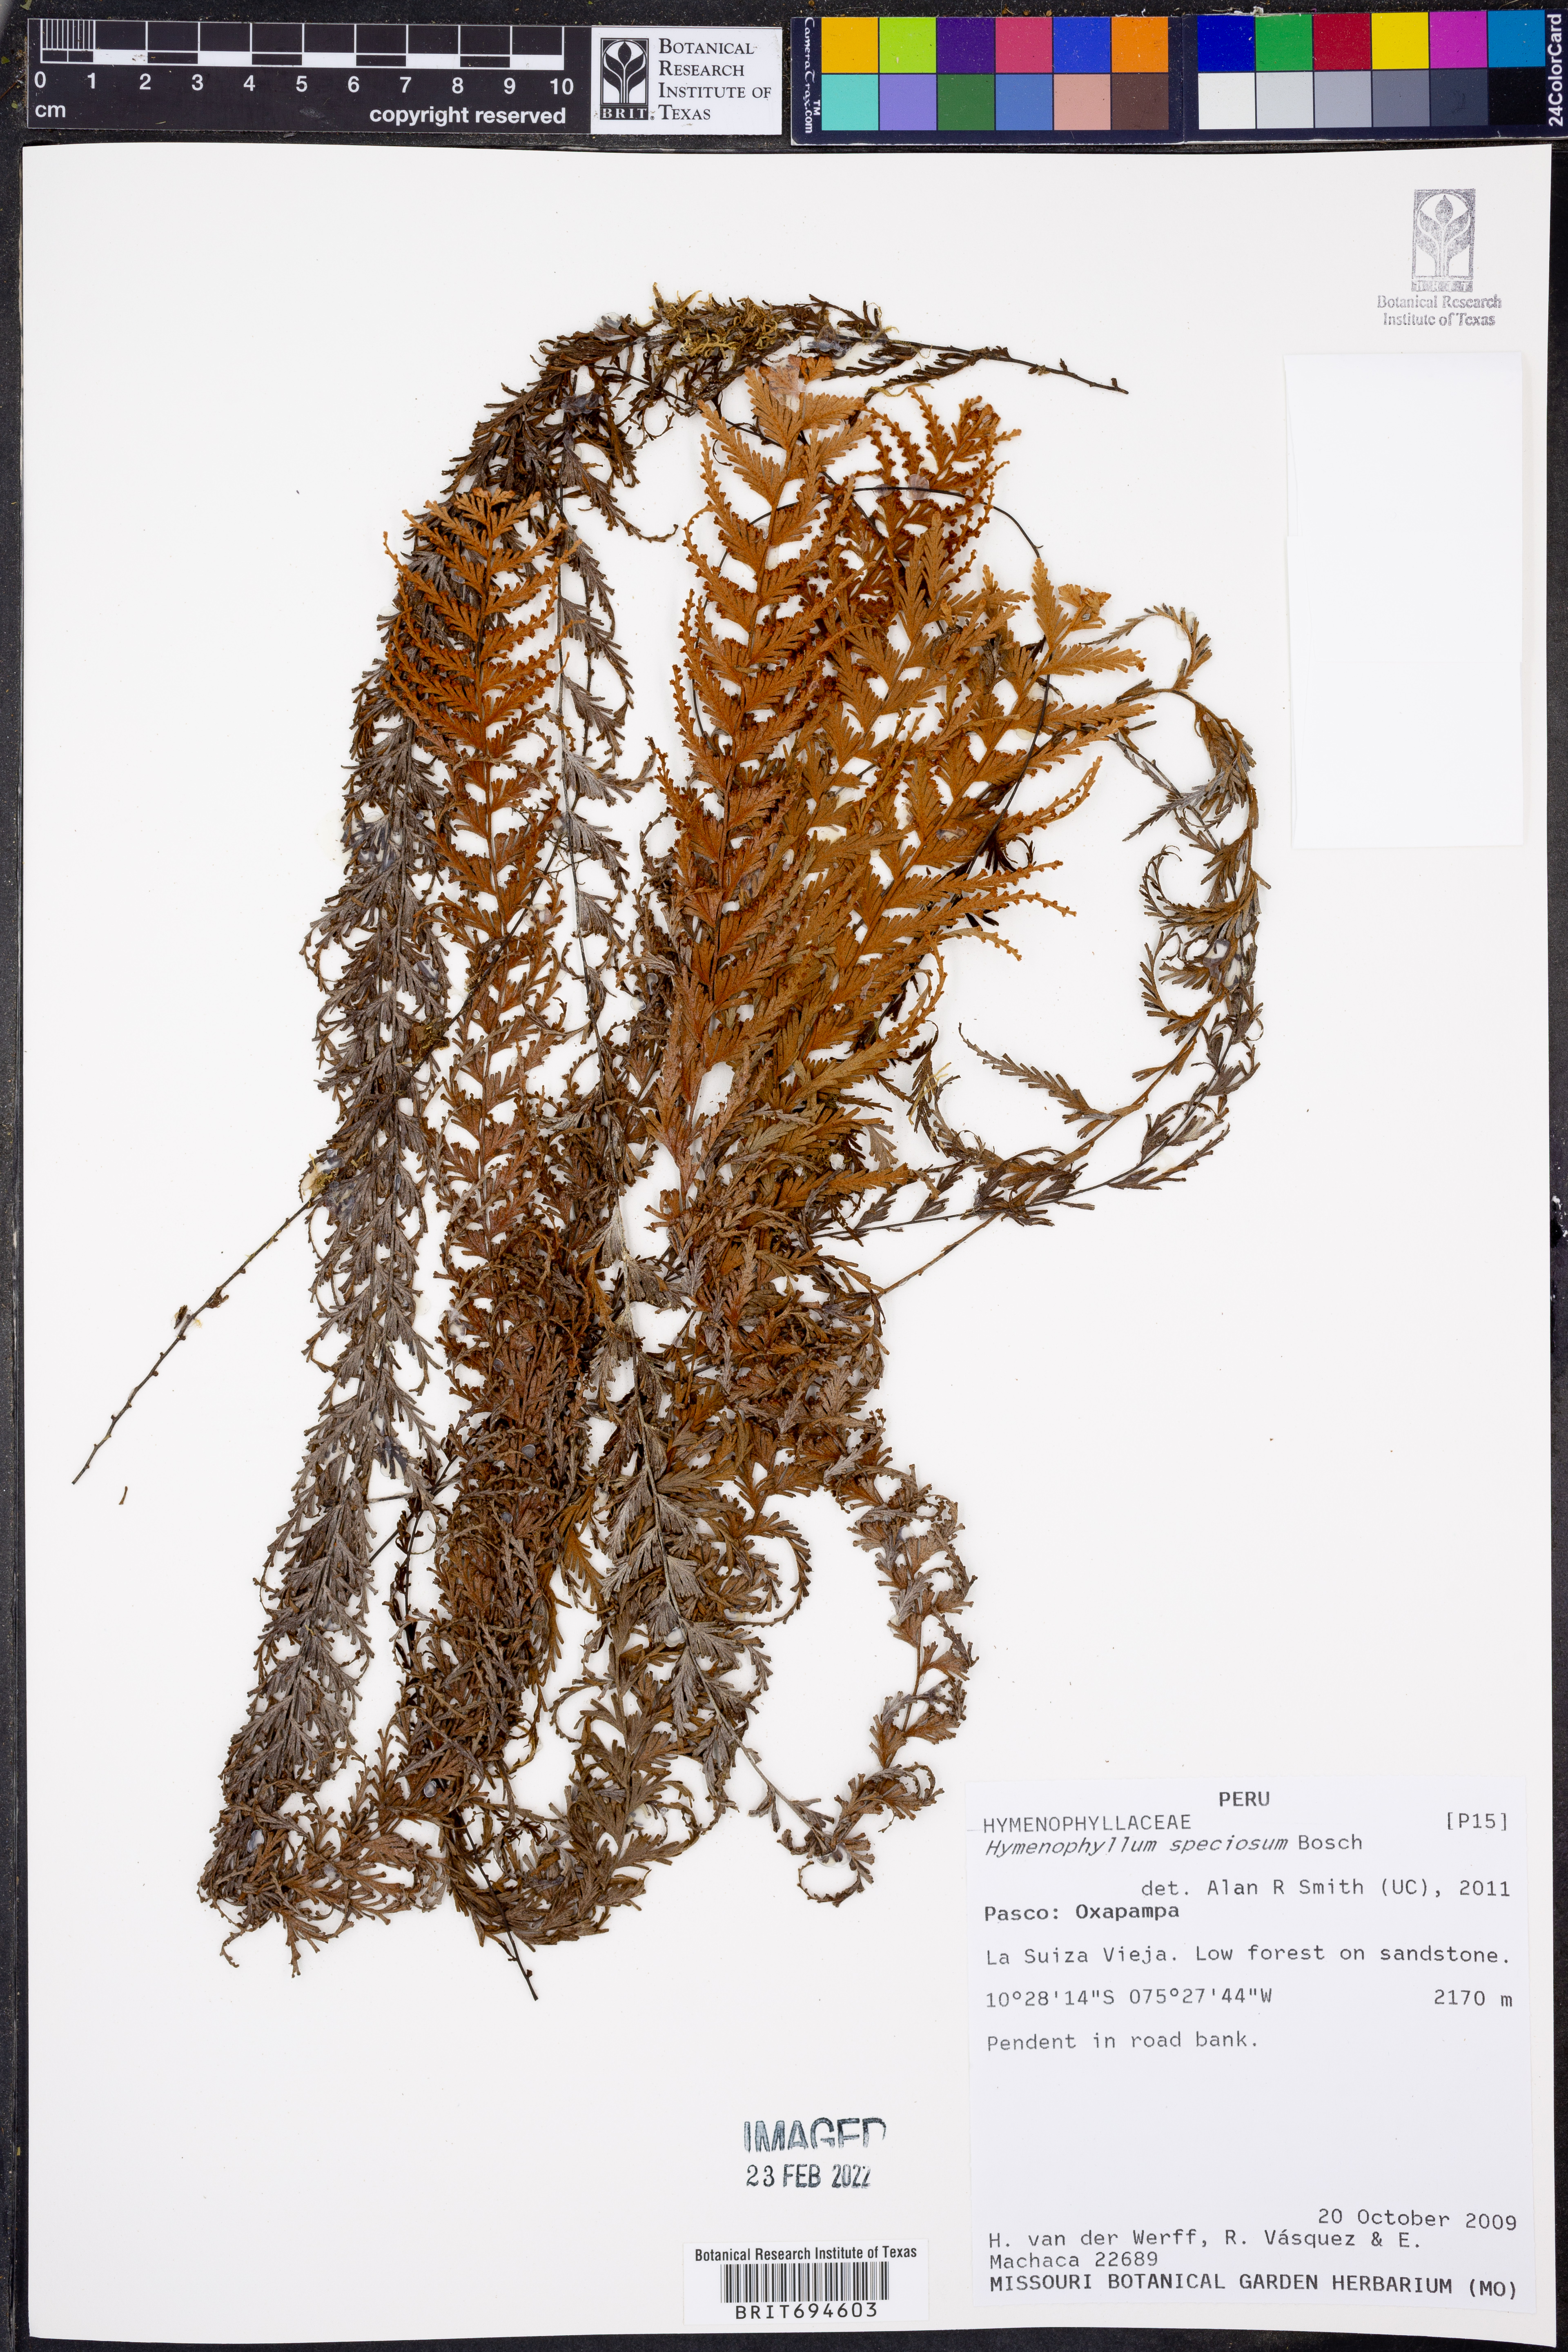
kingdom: Plantae
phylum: Tracheophyta
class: Polypodiopsida
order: Hymenophyllales
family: Hymenophyllaceae
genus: Hymenophyllum
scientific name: Hymenophyllum sericeum
